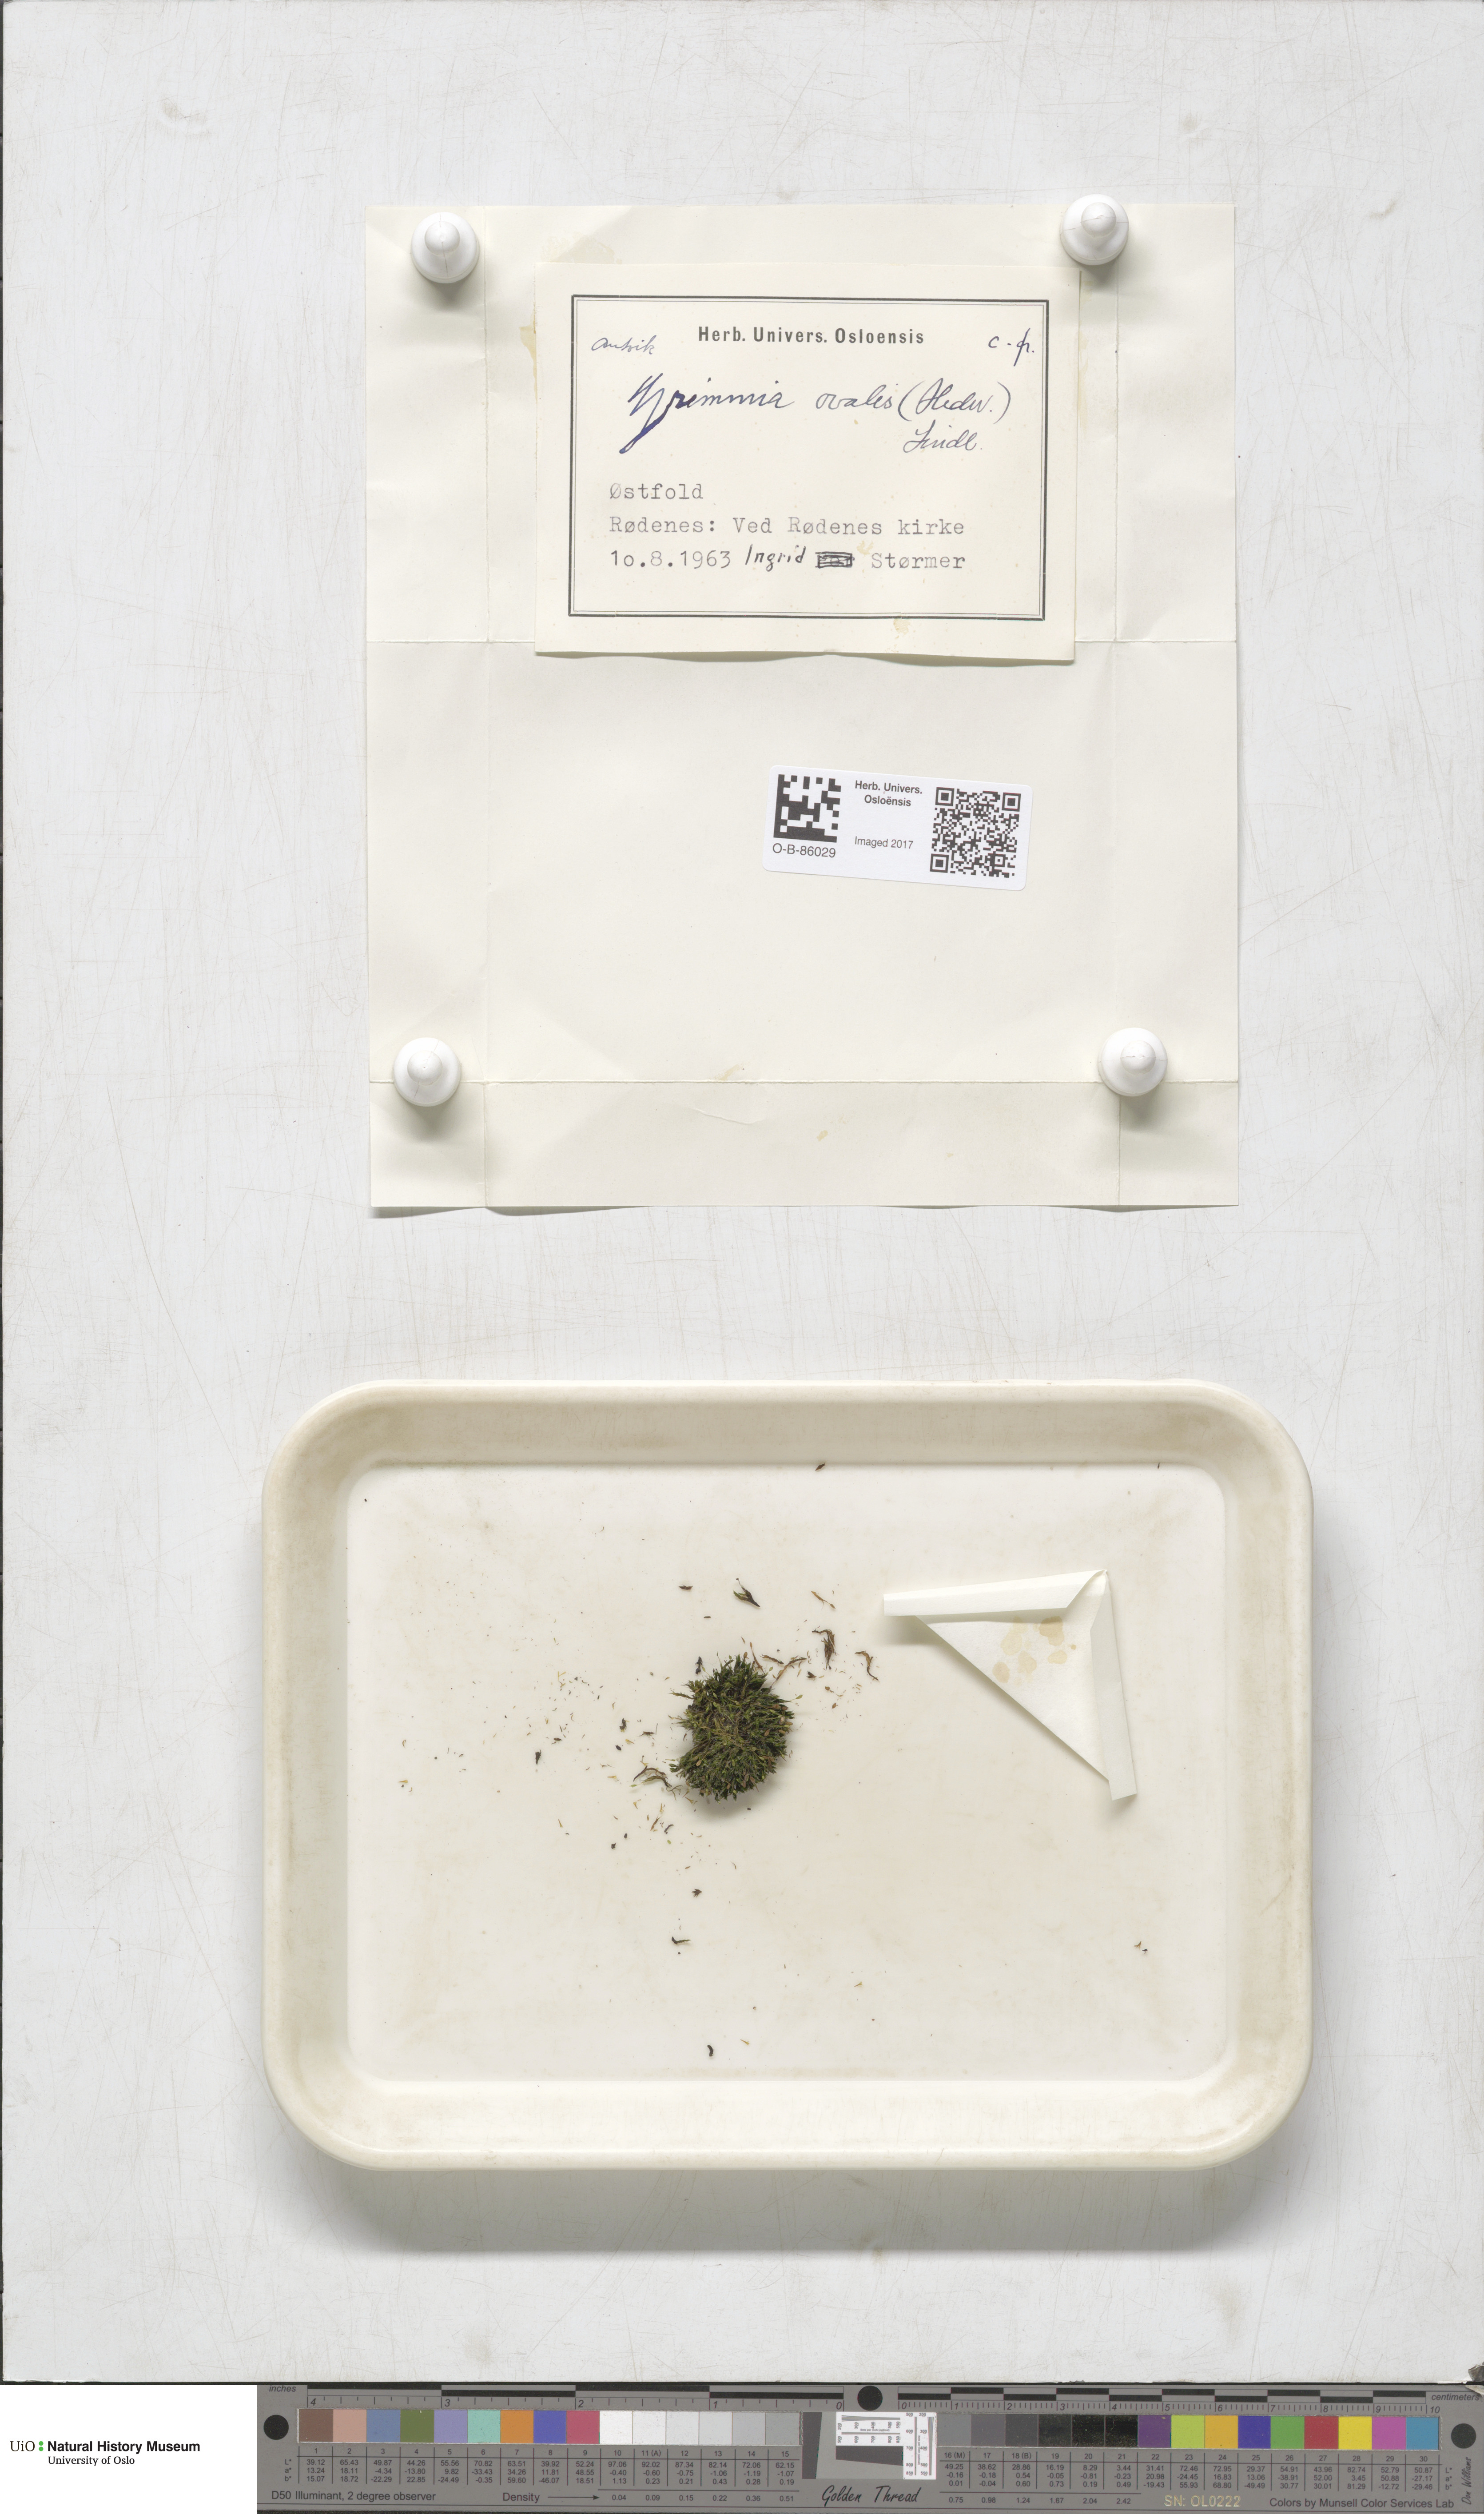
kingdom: Plantae
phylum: Bryophyta
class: Bryopsida
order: Grimmiales
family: Grimmiaceae
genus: Grimmia
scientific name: Grimmia ovalis
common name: Oval grimmia
